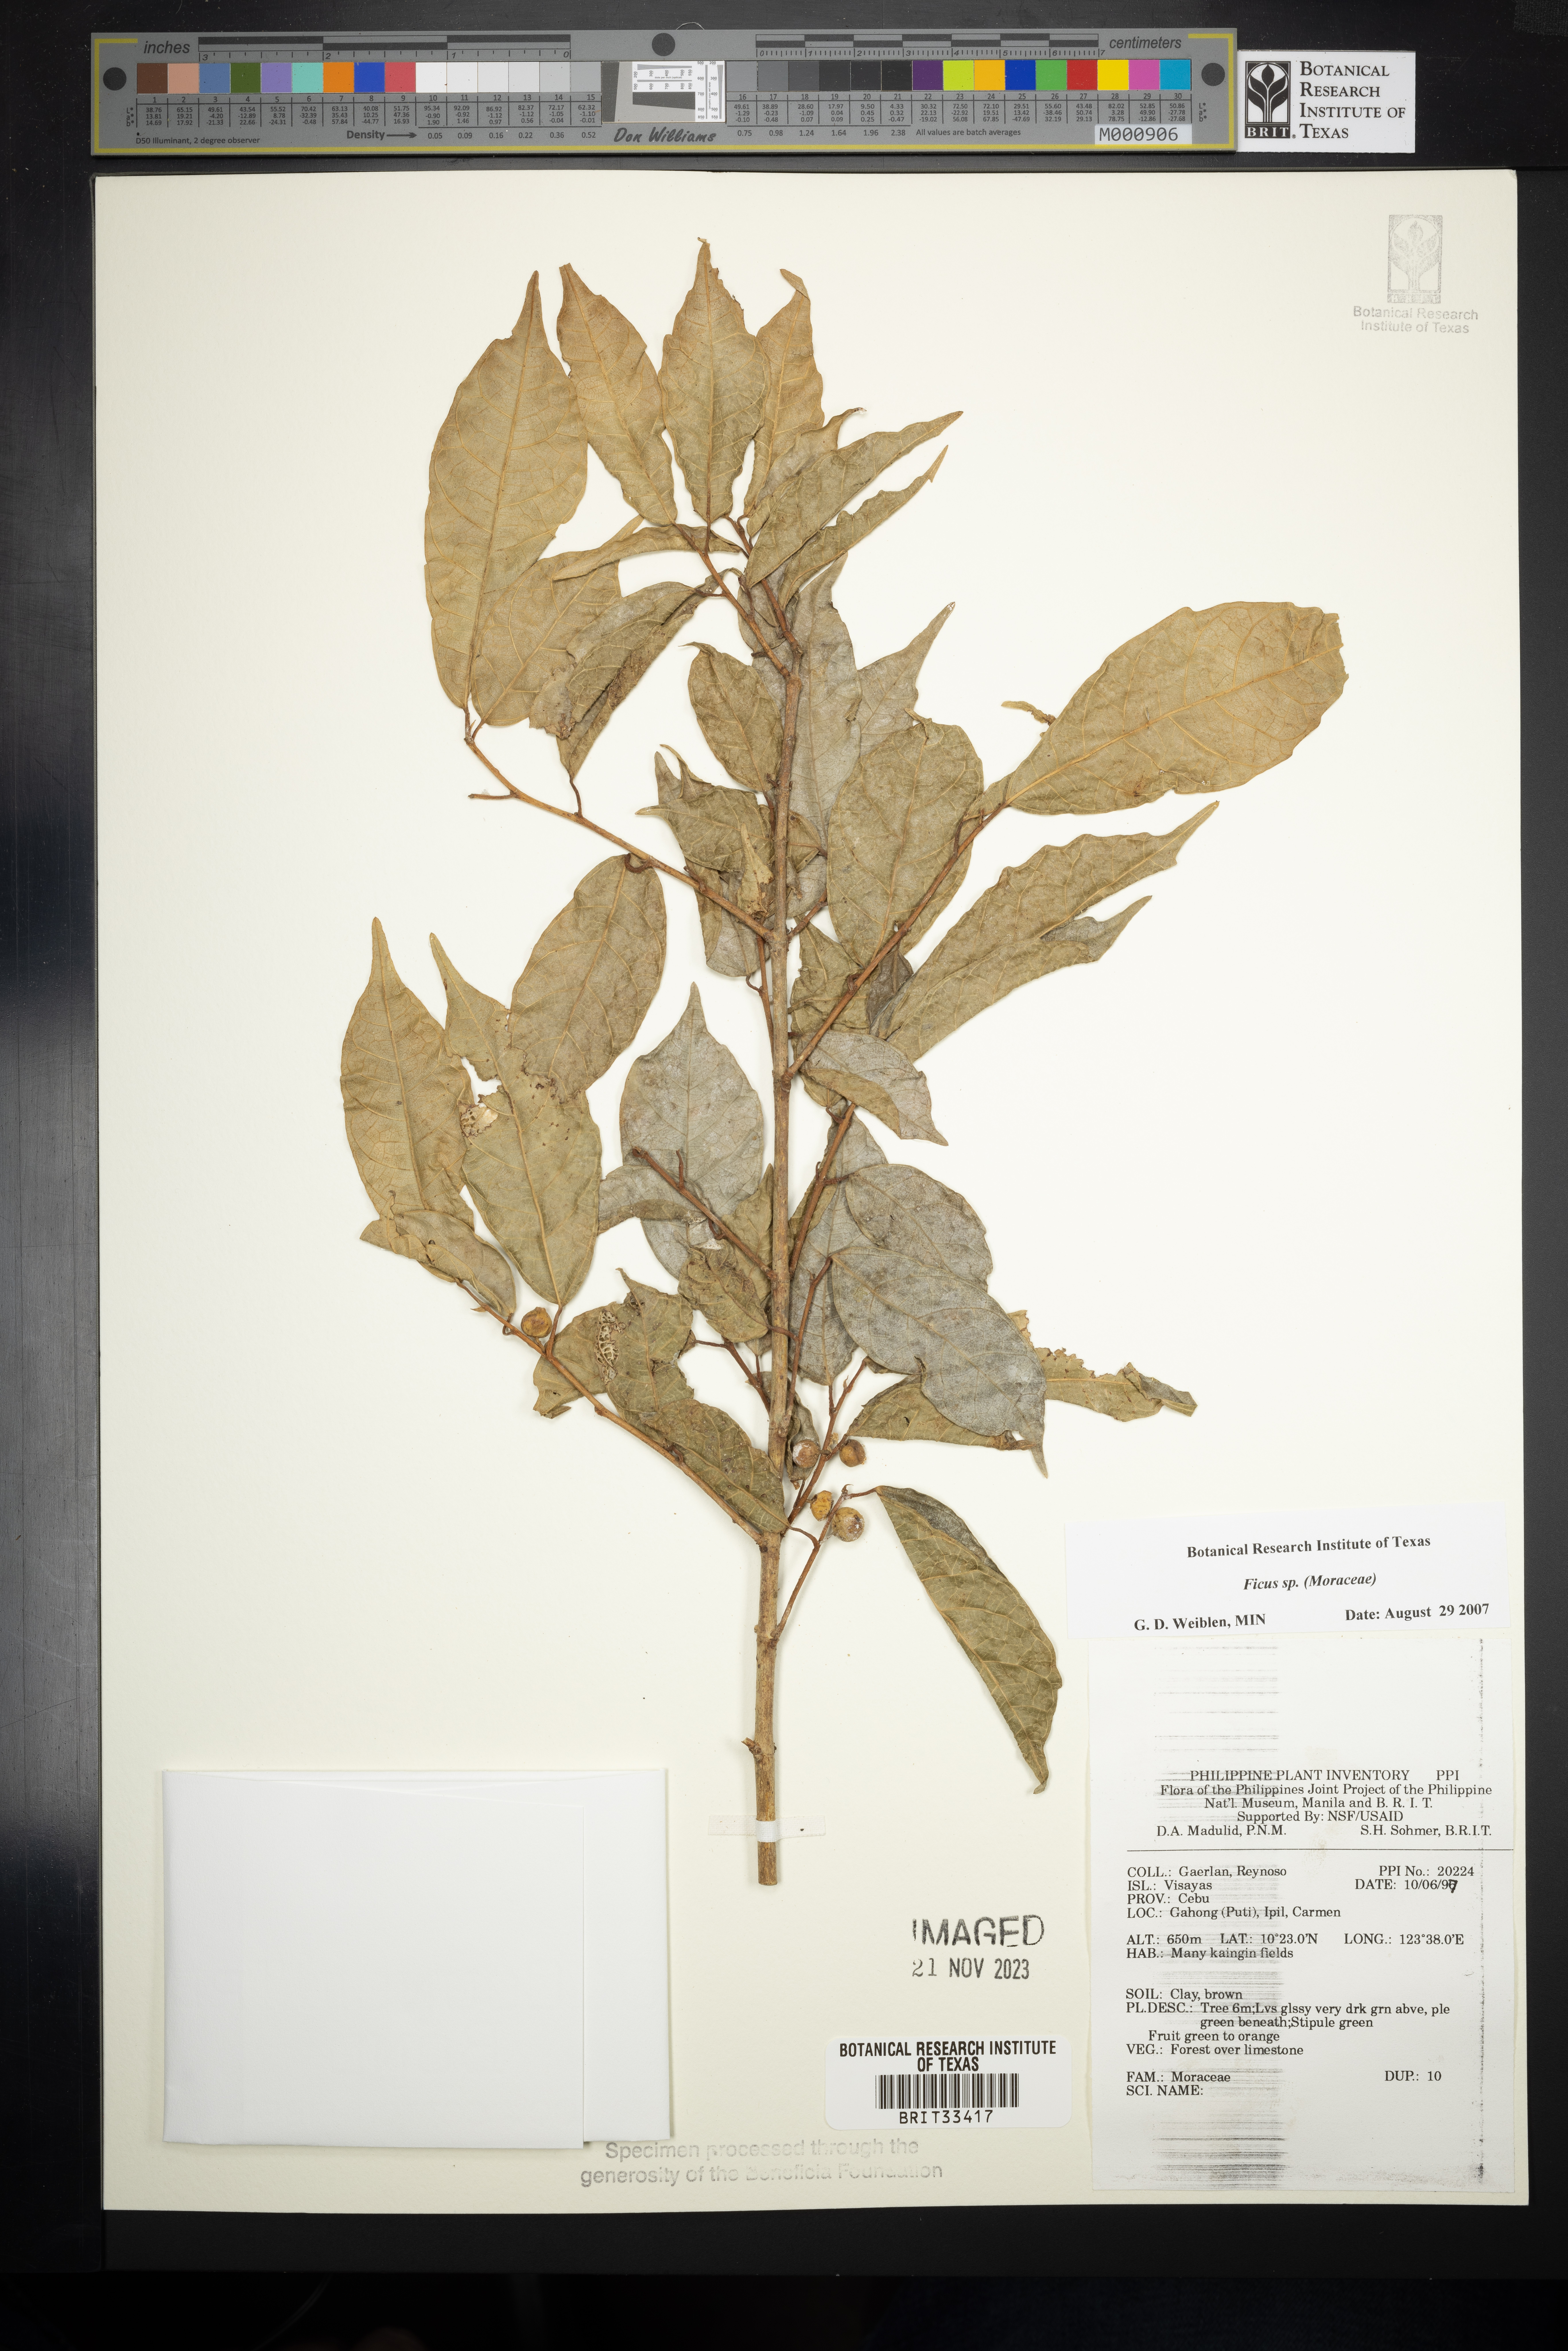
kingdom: Plantae
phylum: Tracheophyta
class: Magnoliopsida
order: Rosales
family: Moraceae
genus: Ficus
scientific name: Ficus
